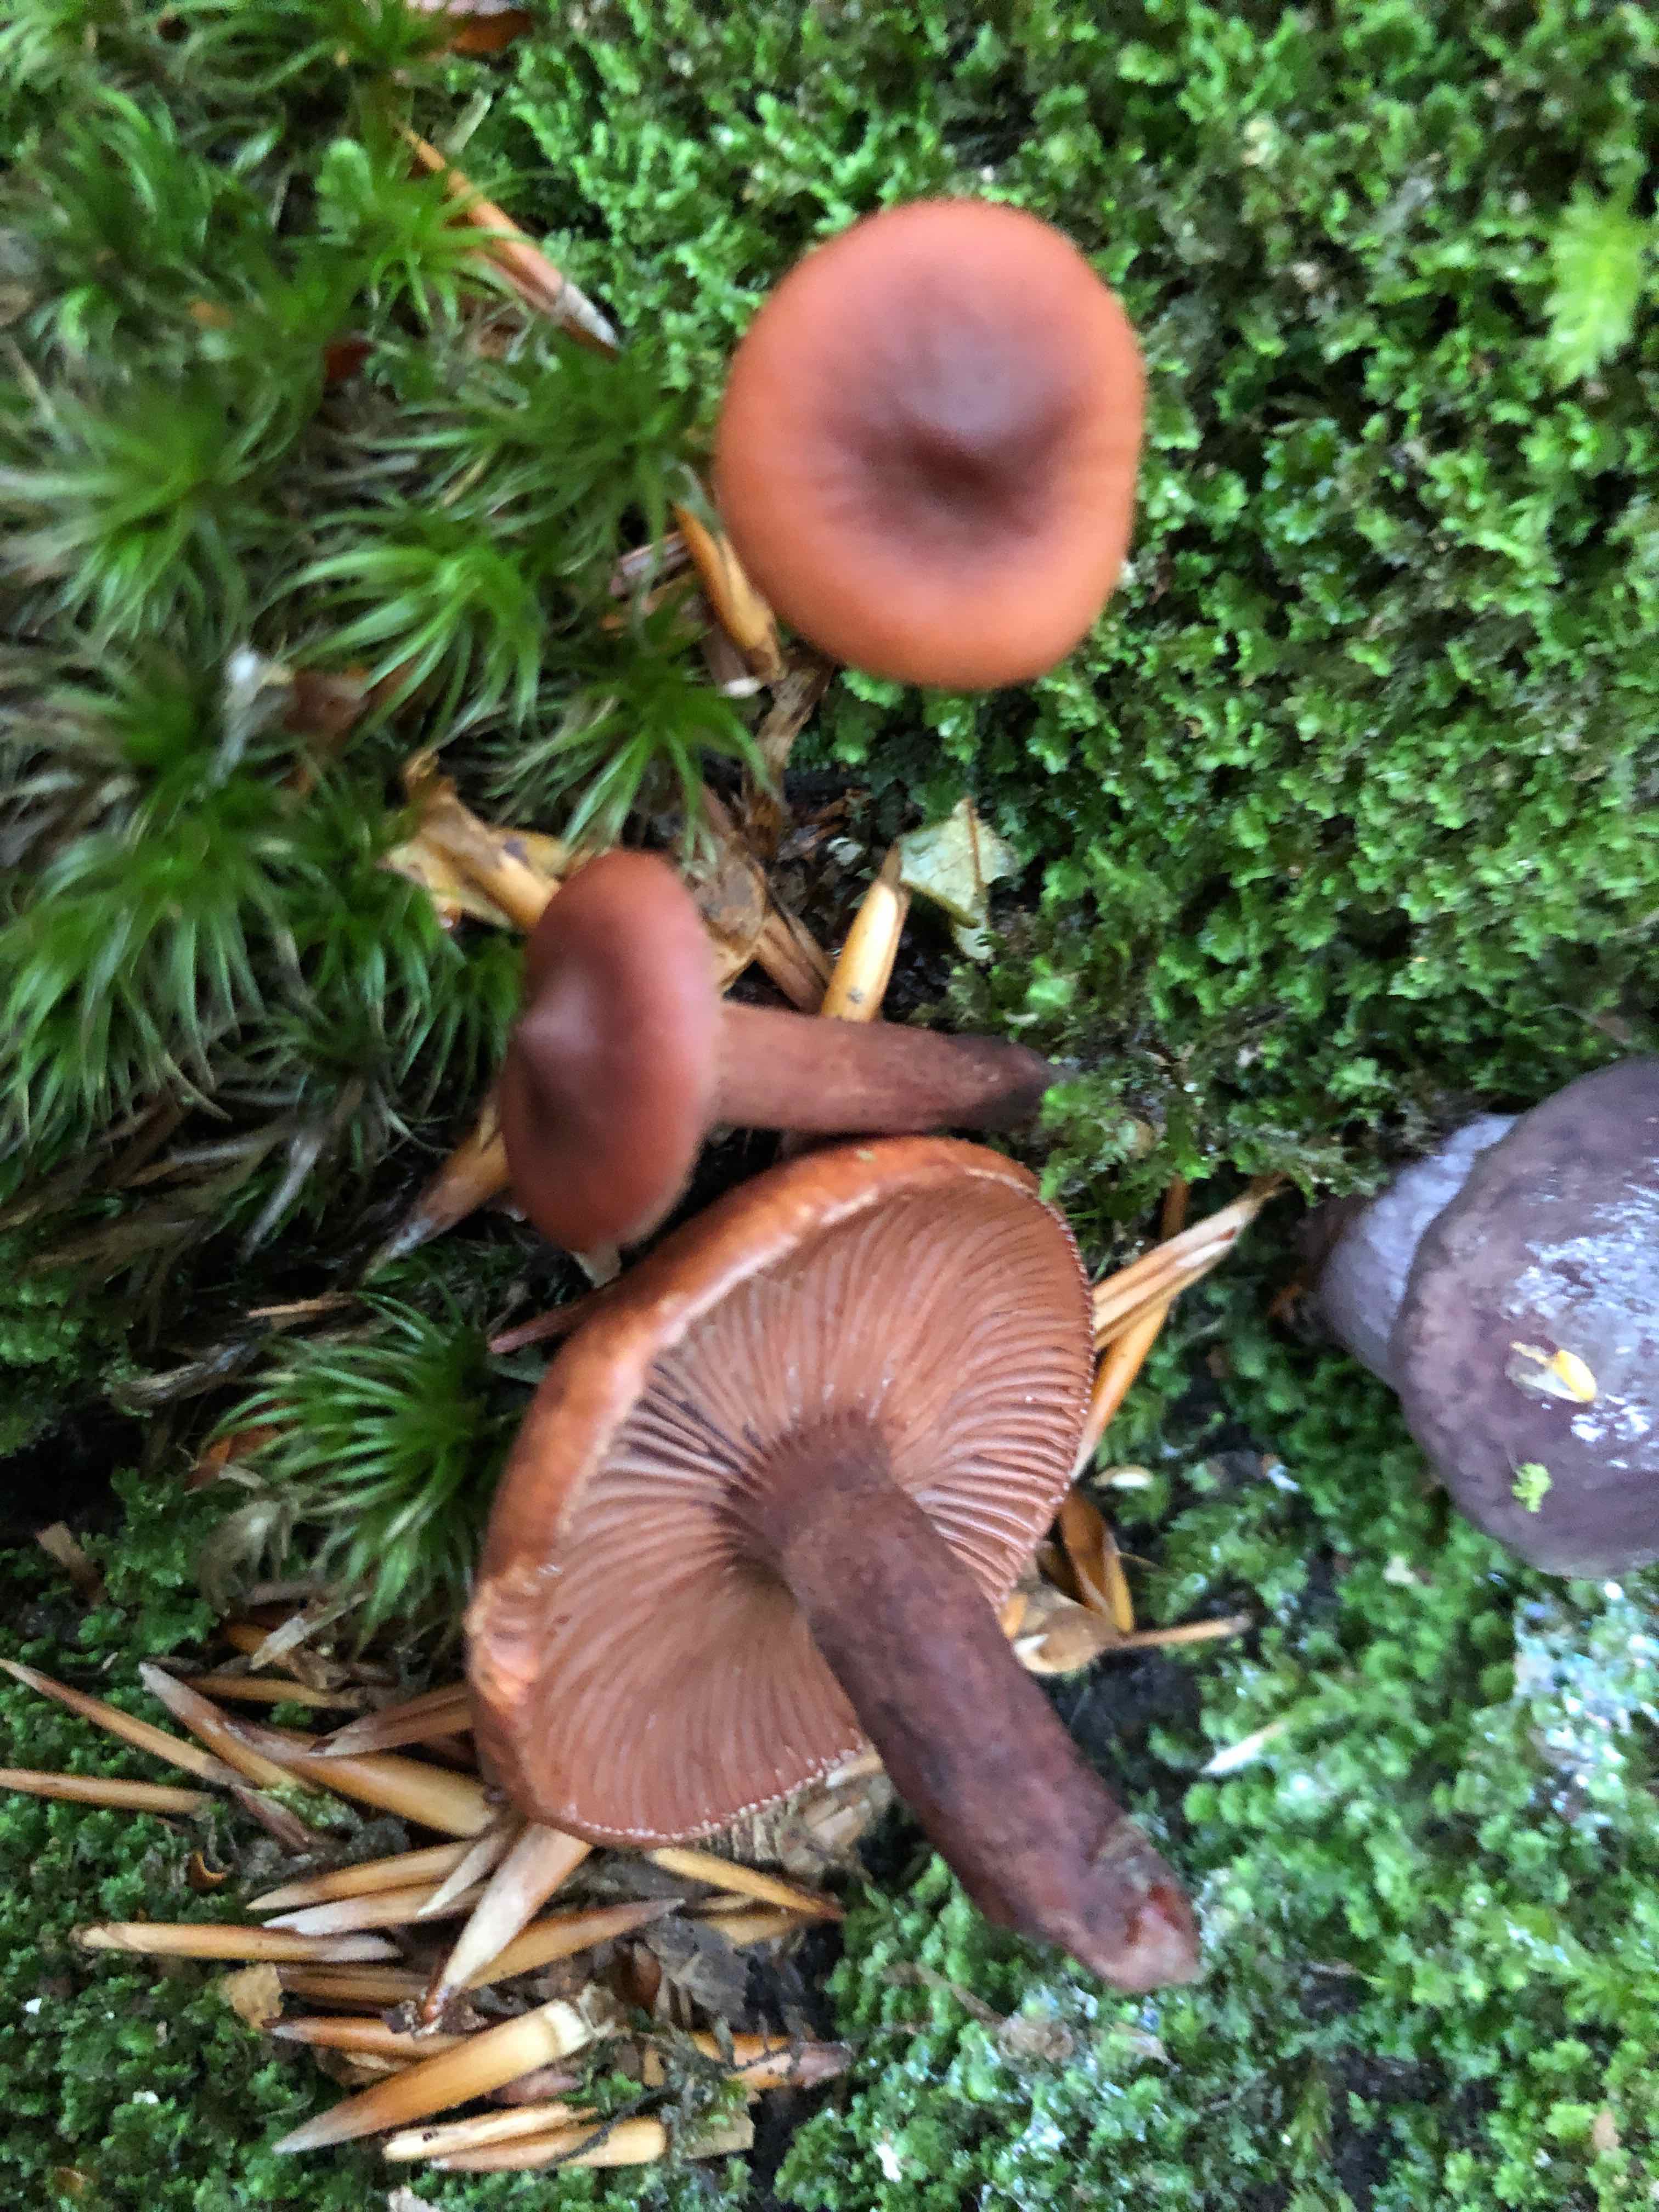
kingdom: Fungi
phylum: Basidiomycota
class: Agaricomycetes
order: Russulales
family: Russulaceae
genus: Lactarius
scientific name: Lactarius camphoratus
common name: kamfer-mælkehat
